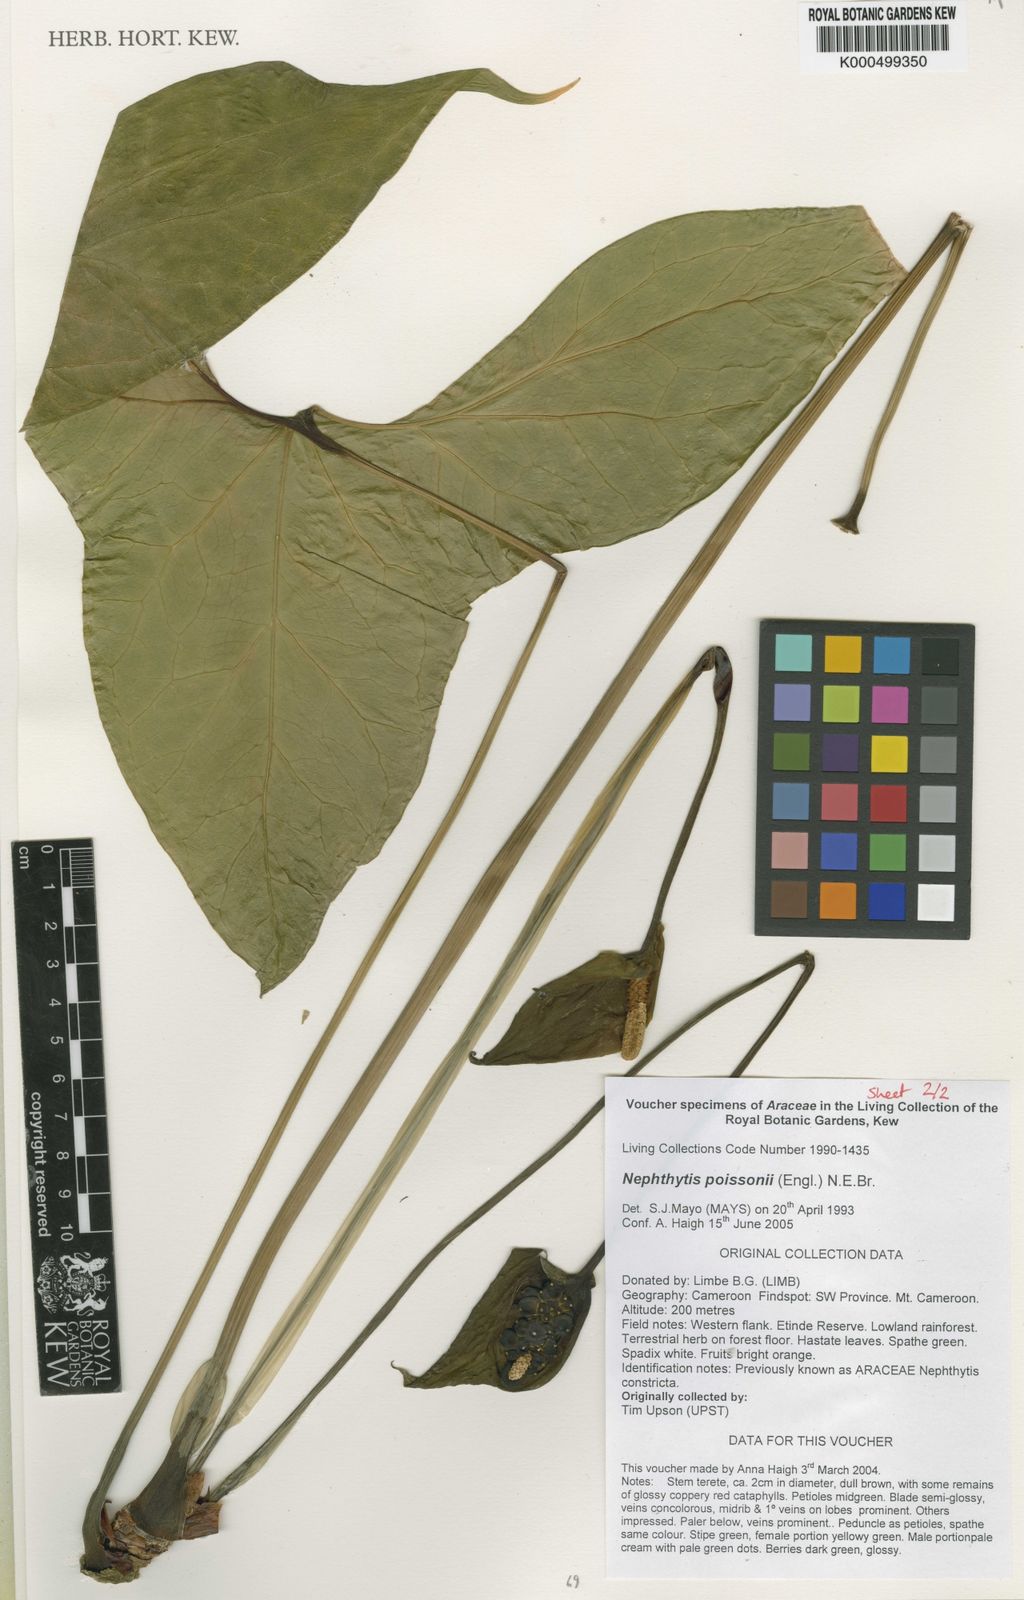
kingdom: Plantae
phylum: Tracheophyta
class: Liliopsida
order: Alismatales
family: Araceae
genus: Nephthytis
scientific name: Nephthytis poissonii
